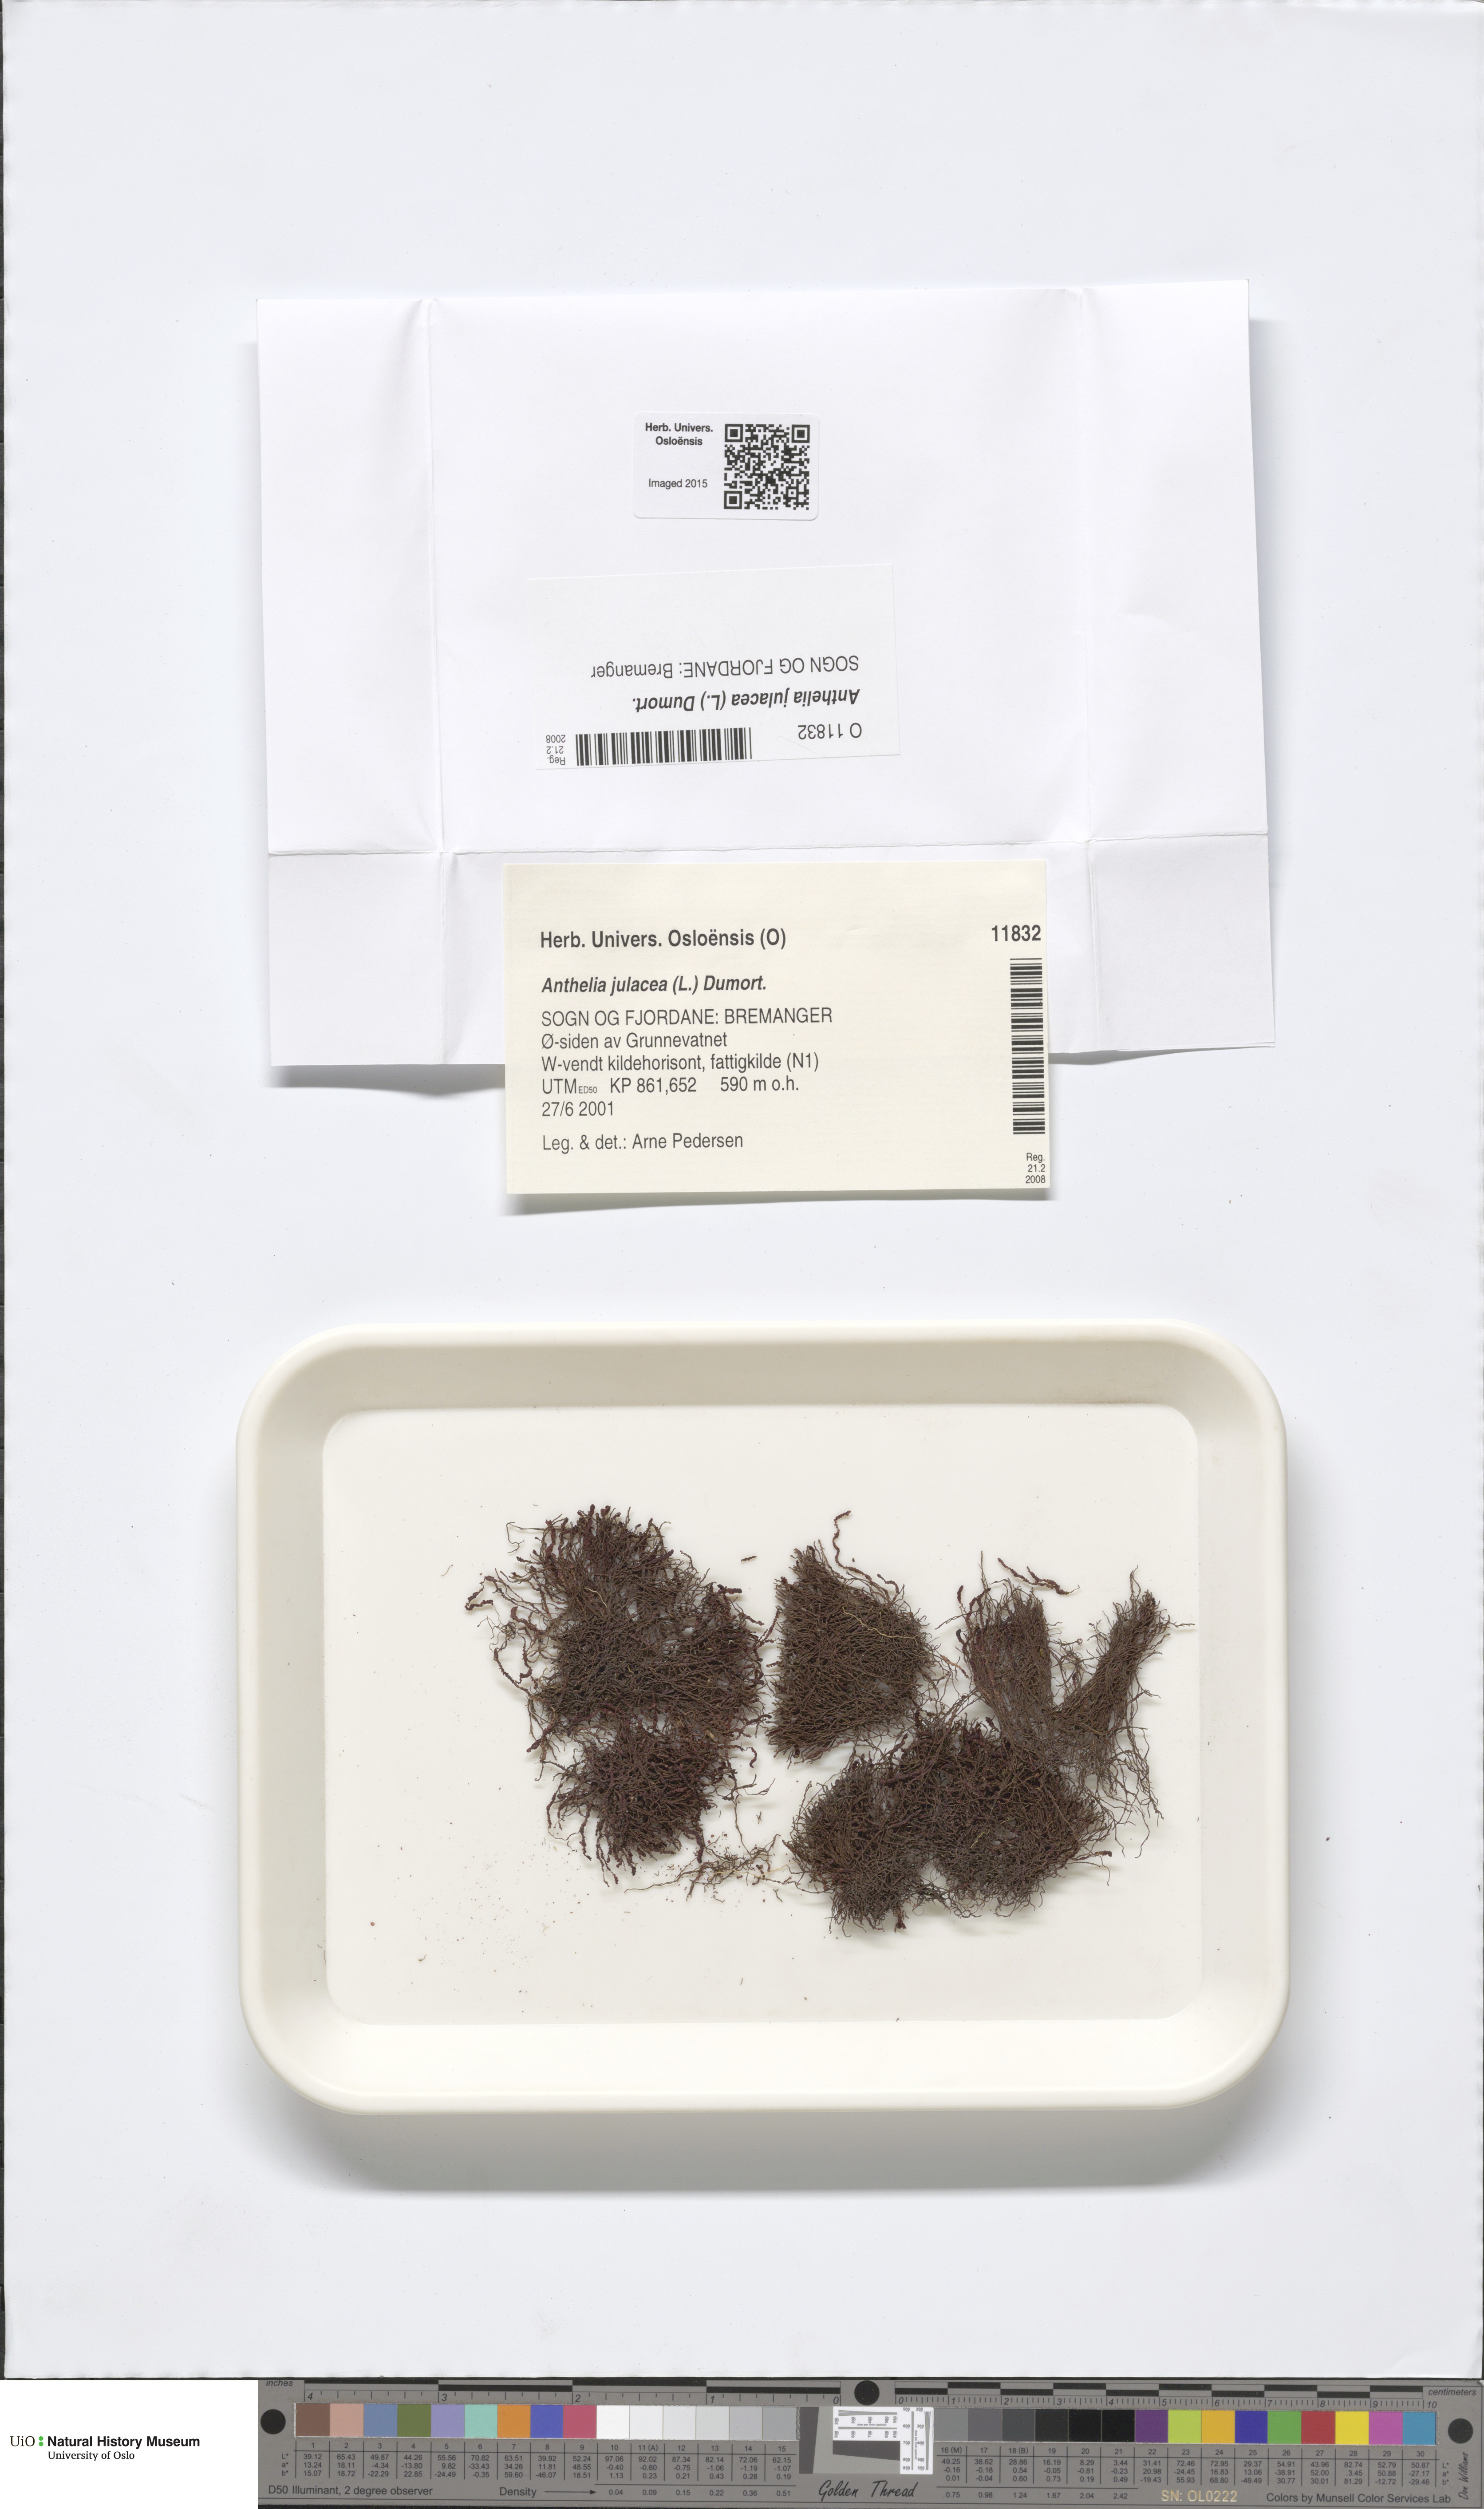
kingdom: Plantae
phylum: Marchantiophyta
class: Jungermanniopsida
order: Jungermanniales
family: Antheliaceae
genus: Anthelia
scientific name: Anthelia julacea
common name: Alpine silverwort
